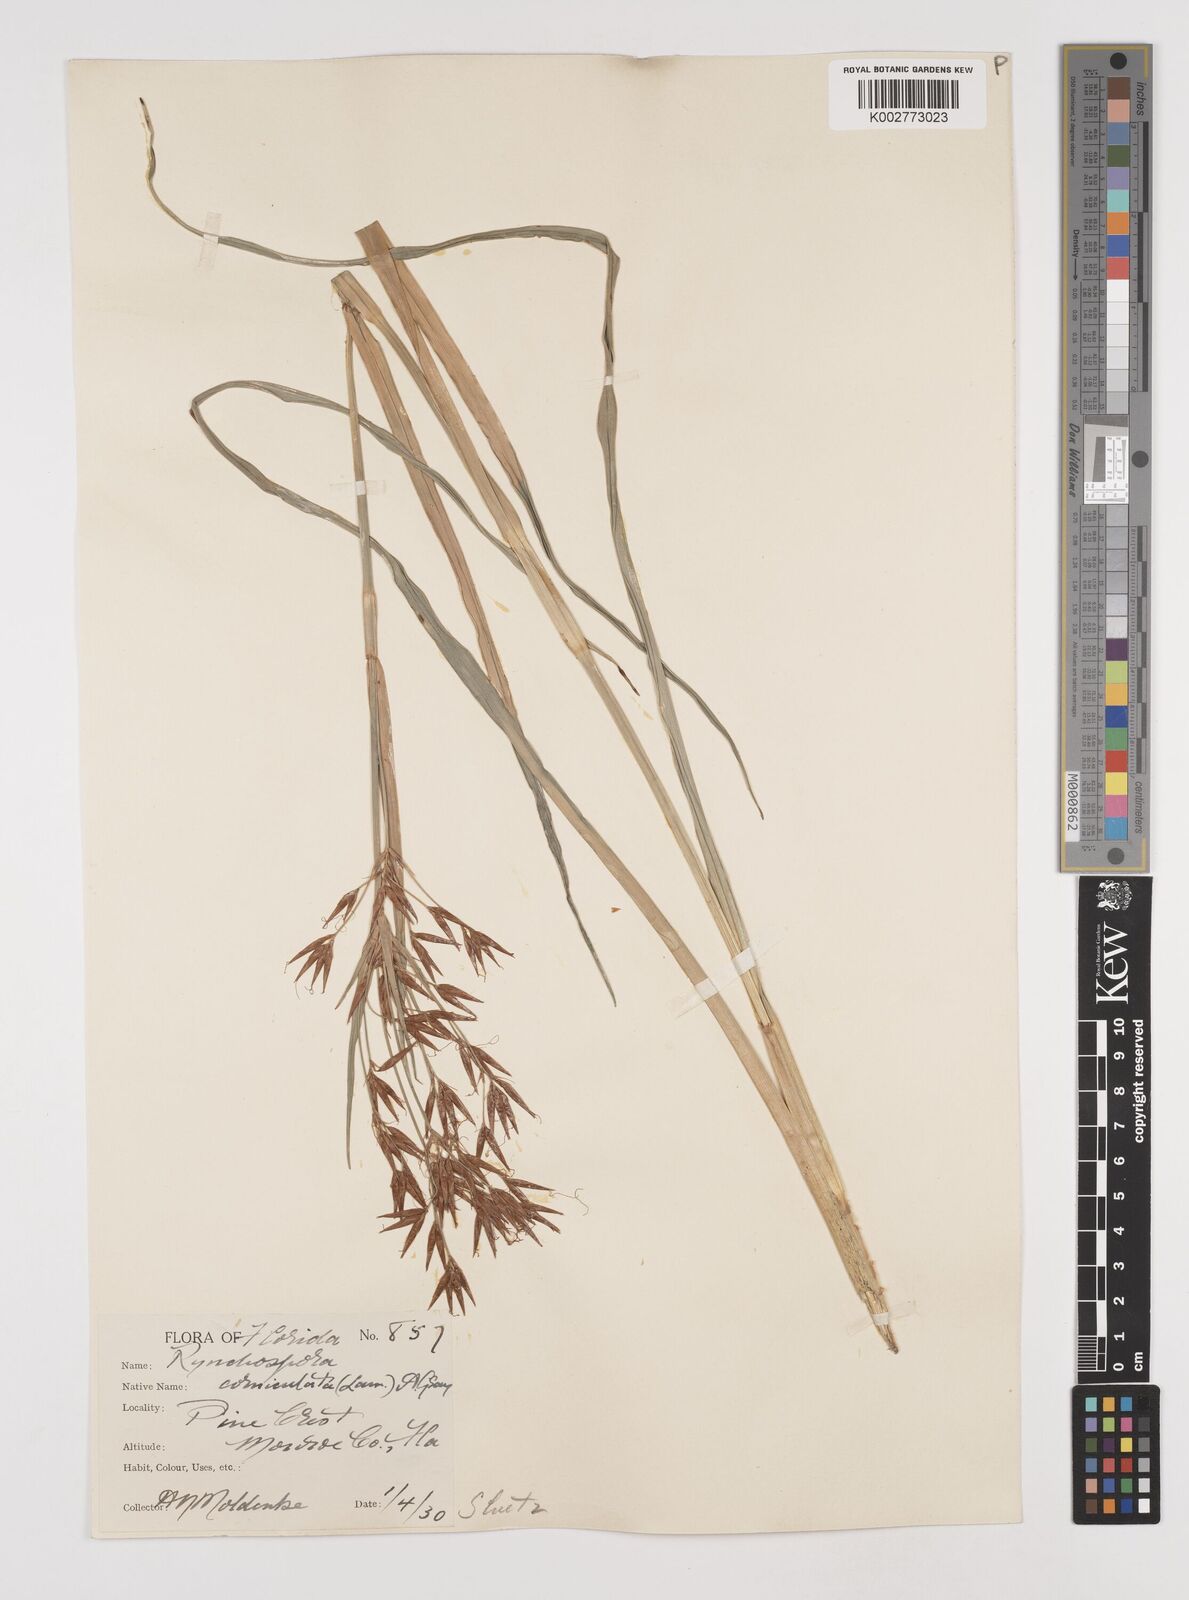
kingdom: Plantae
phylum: Tracheophyta
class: Liliopsida
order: Poales
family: Cyperaceae
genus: Rhynchospora
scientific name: Rhynchospora corniculata
